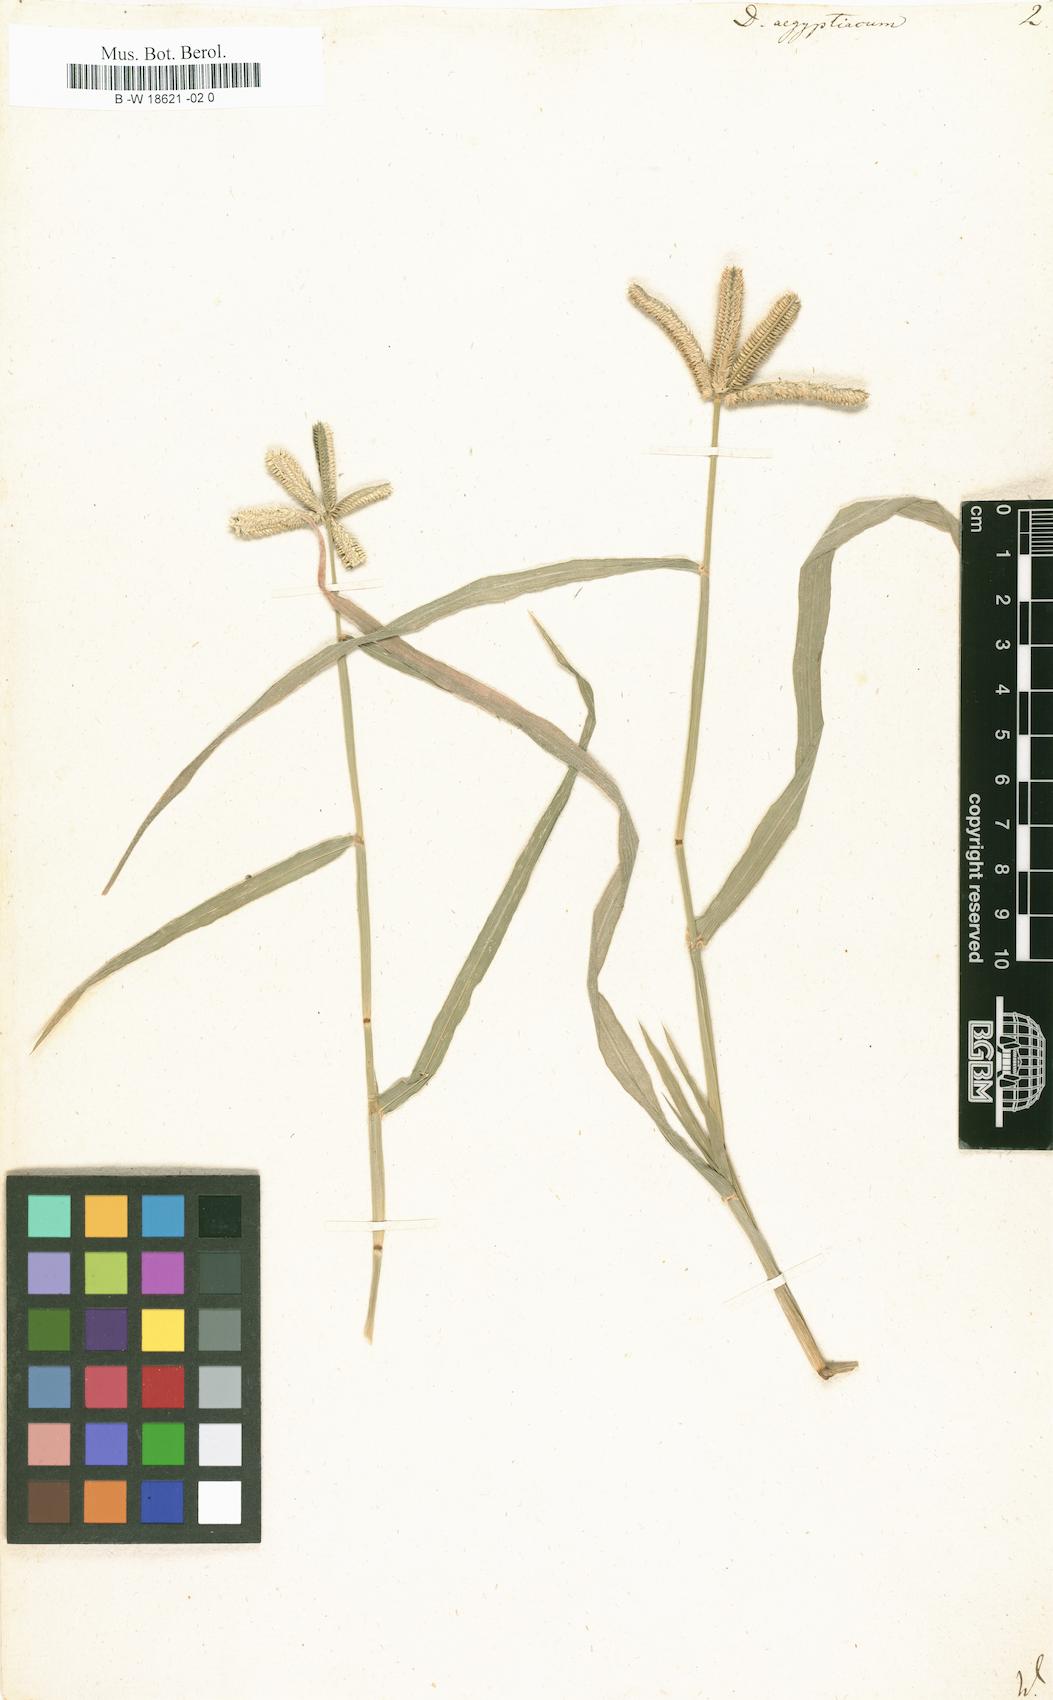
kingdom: Plantae
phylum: Tracheophyta
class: Liliopsida
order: Poales
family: Poaceae
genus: Dactyloctenium
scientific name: Dactyloctenium aegyptium
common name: Egyptian grass
